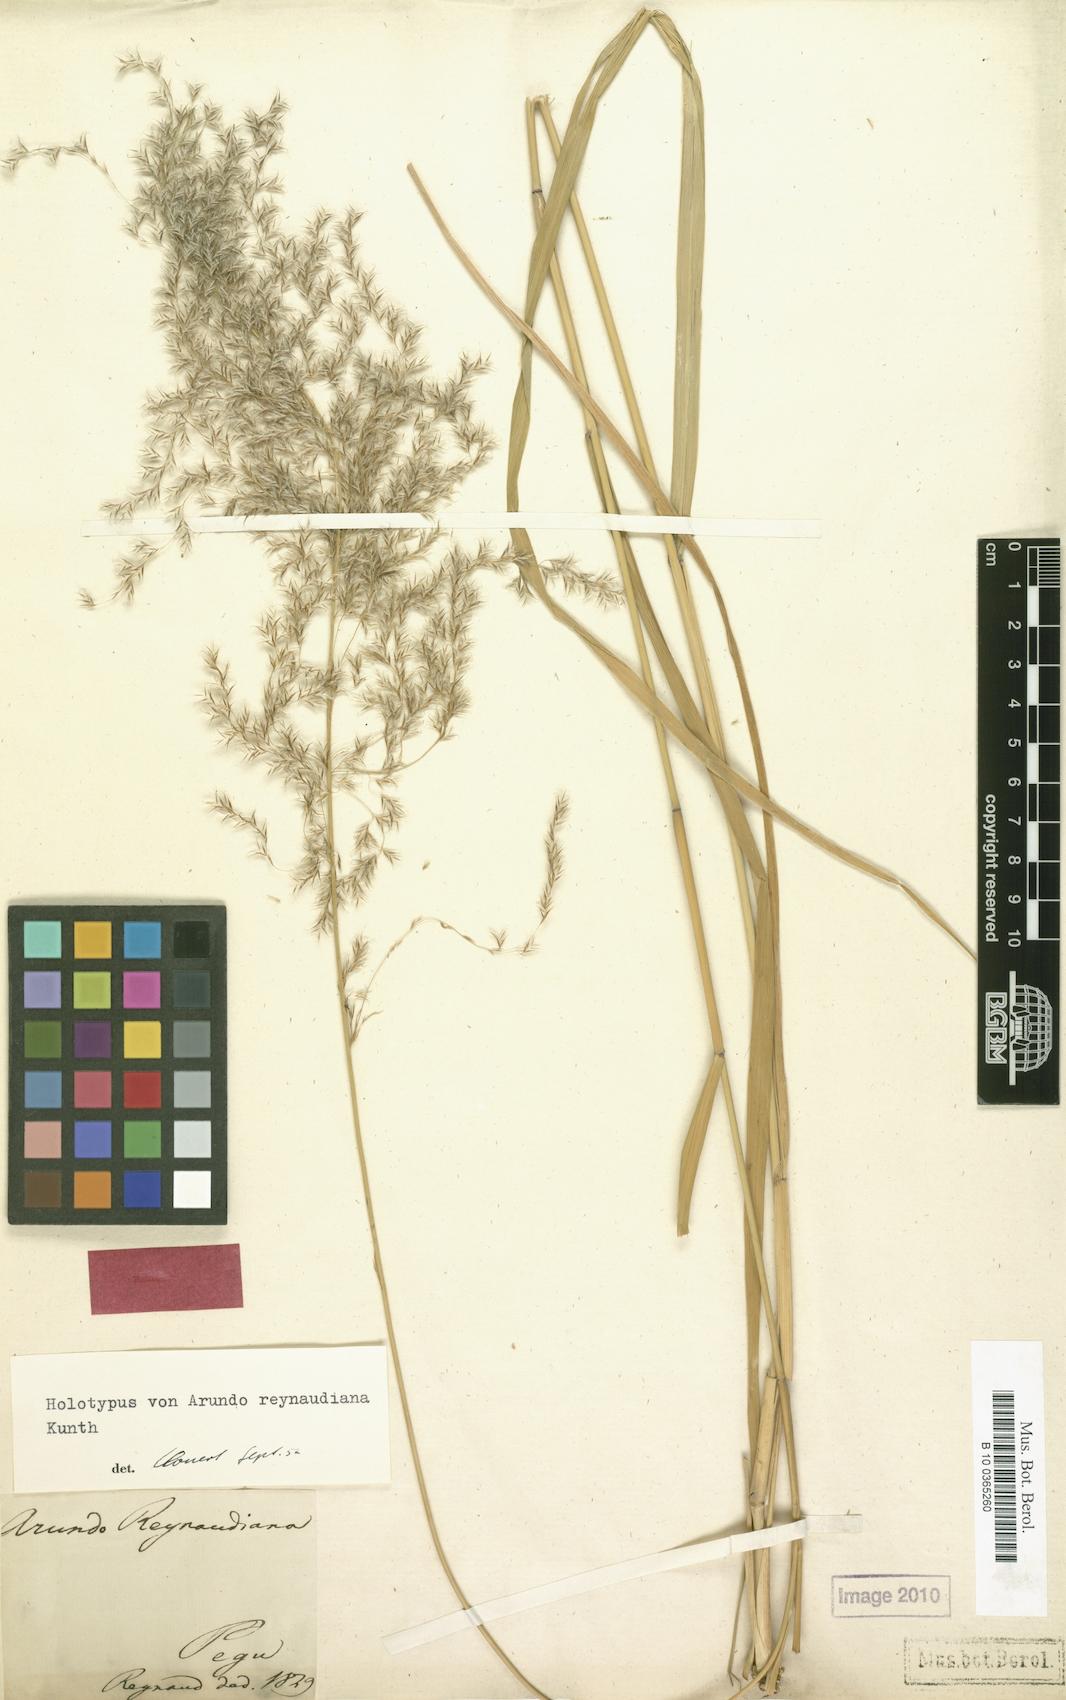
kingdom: Plantae
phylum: Tracheophyta
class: Liliopsida
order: Poales
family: Poaceae
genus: Neyraudia
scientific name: Neyraudia reynaudiana
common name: Silkreed
